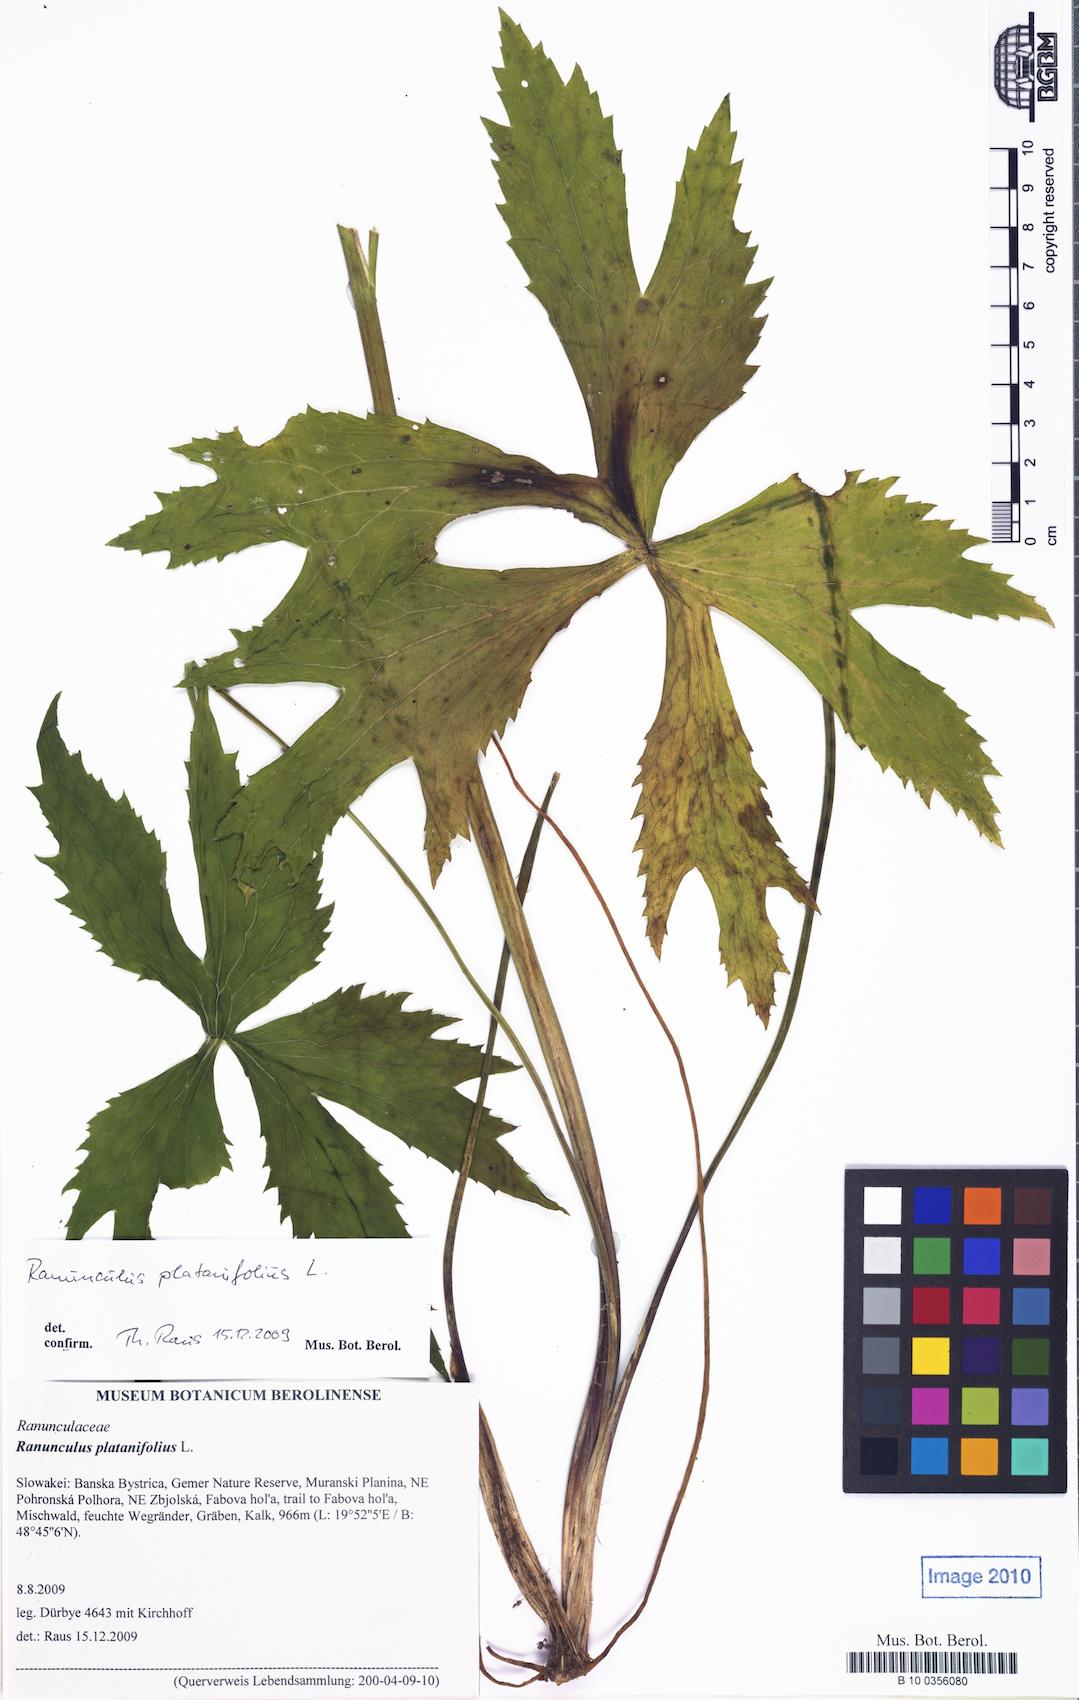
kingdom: Plantae
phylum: Tracheophyta
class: Magnoliopsida
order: Ranunculales
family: Ranunculaceae
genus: Ranunculus
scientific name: Ranunculus platanifolius
